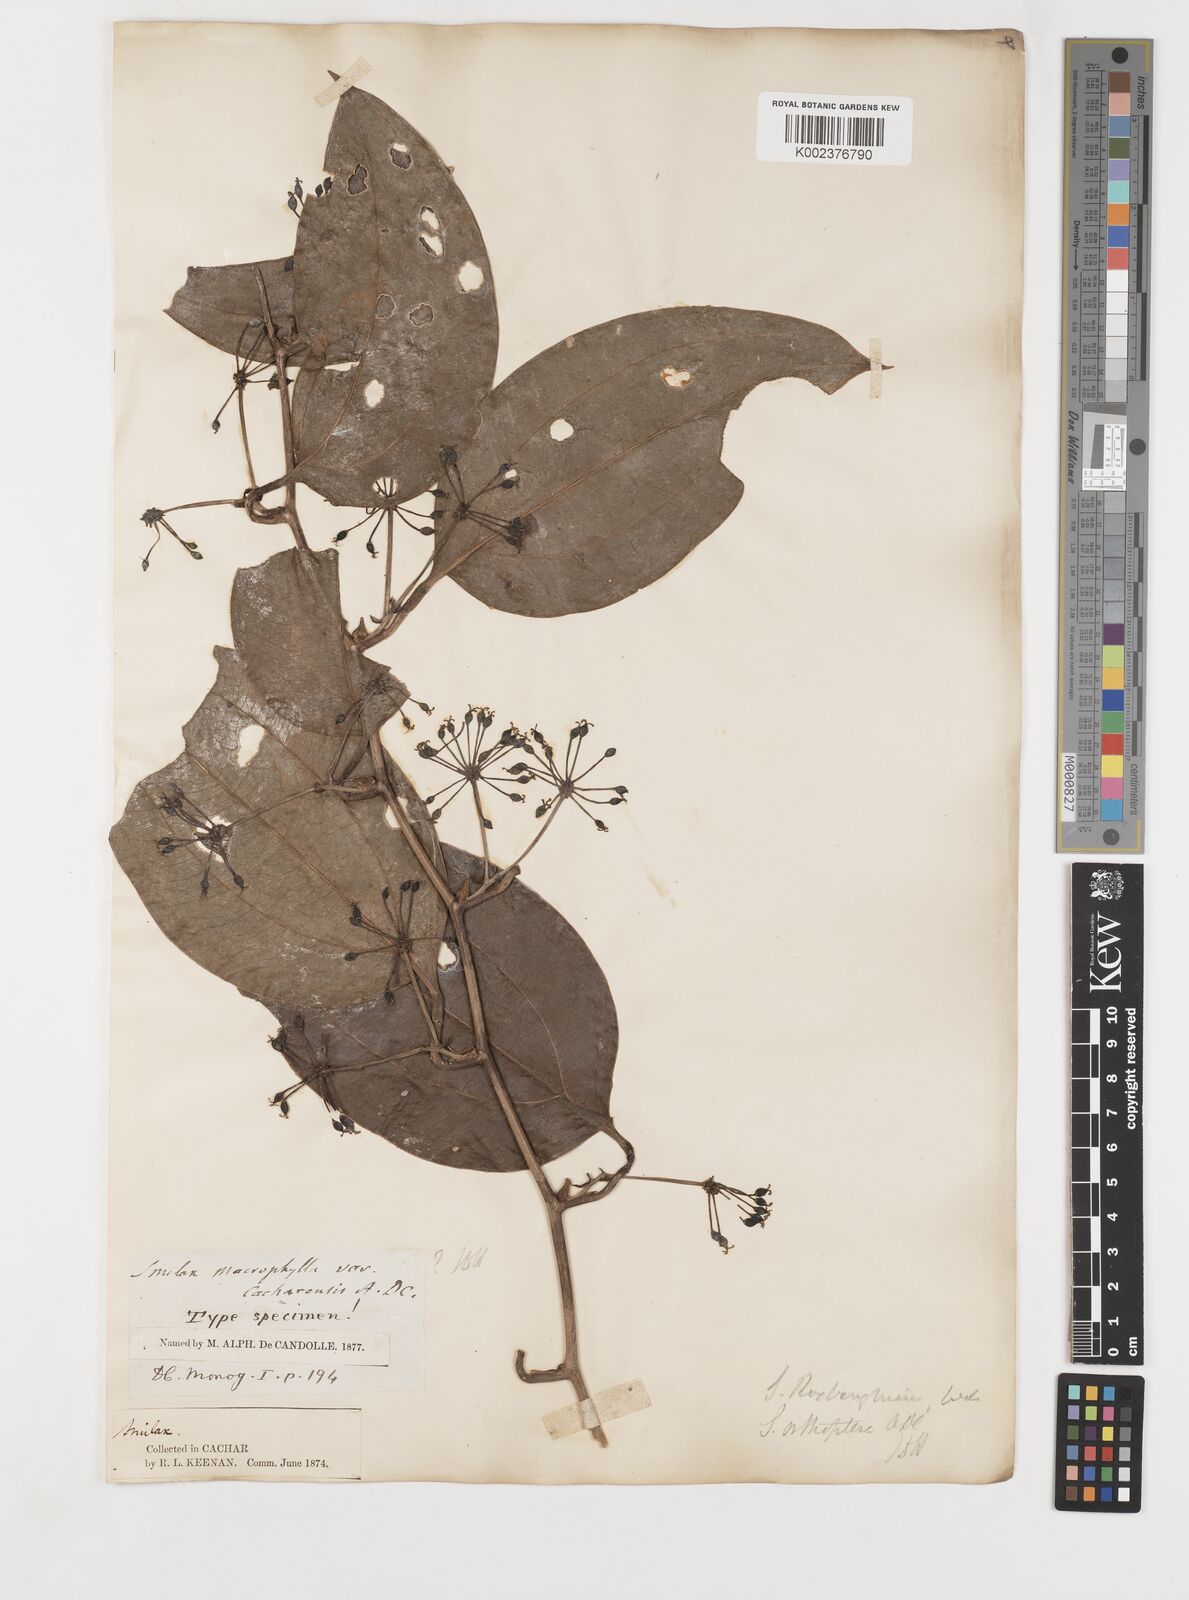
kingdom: Plantae
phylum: Tracheophyta
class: Liliopsida
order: Liliales
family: Smilacaceae
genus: Smilax
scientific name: Smilax orthoptera
